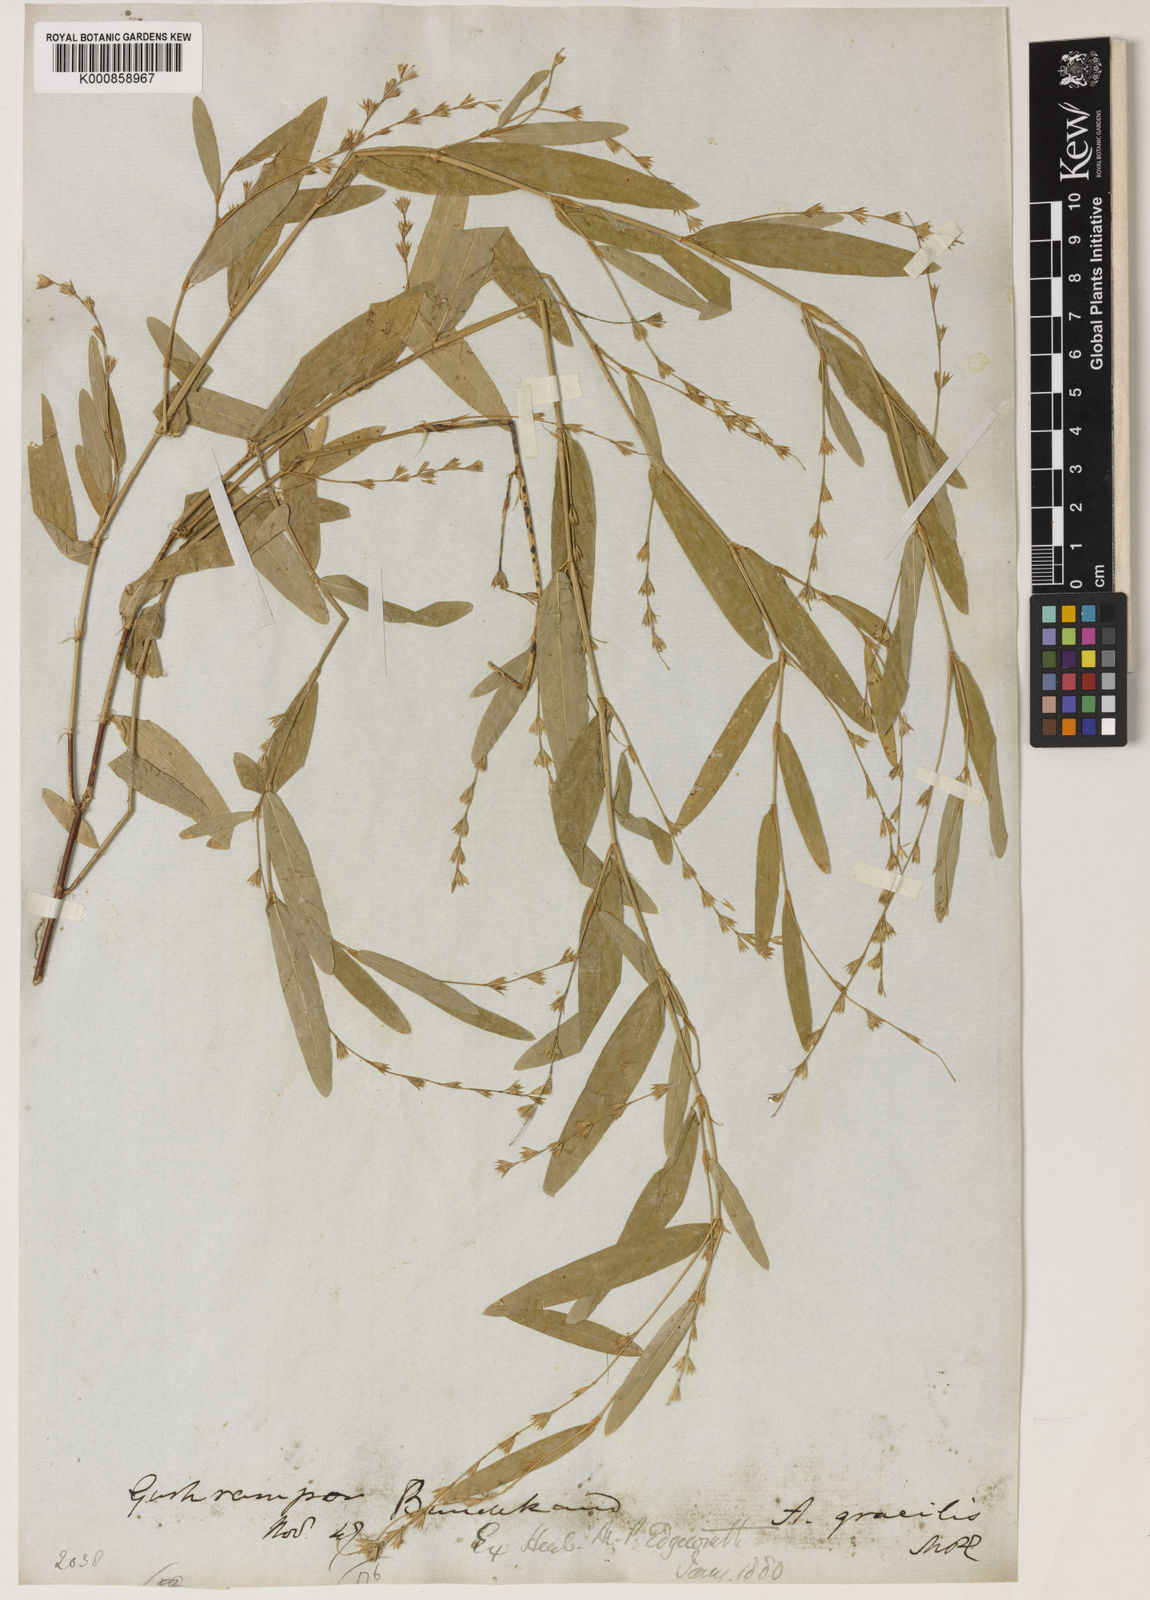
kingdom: Plantae
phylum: Tracheophyta
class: Magnoliopsida
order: Fabales
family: Fabaceae
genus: Alysicarpus
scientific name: Alysicarpus bupleurifolius
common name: Sweet alys
